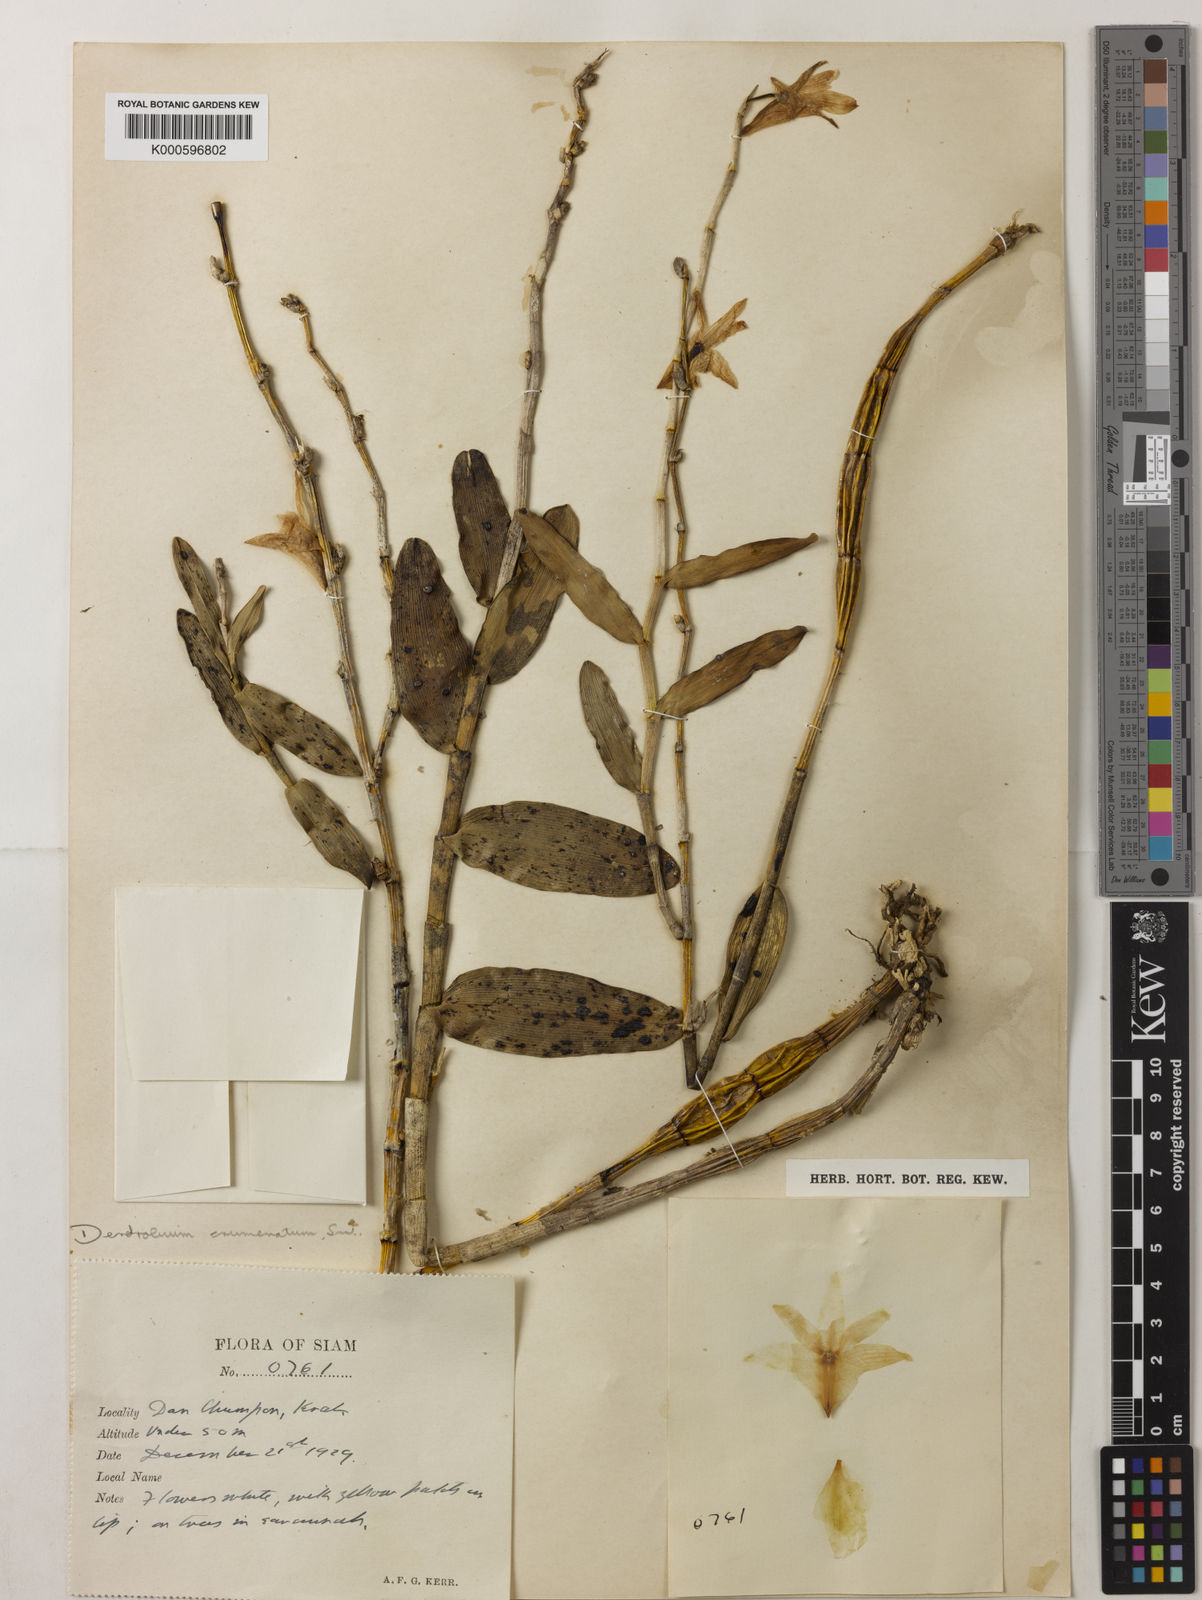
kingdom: Plantae
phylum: Tracheophyta
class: Liliopsida
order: Asparagales
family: Orchidaceae
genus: Dendrobium
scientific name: Dendrobium crumenatum
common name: Orchid
